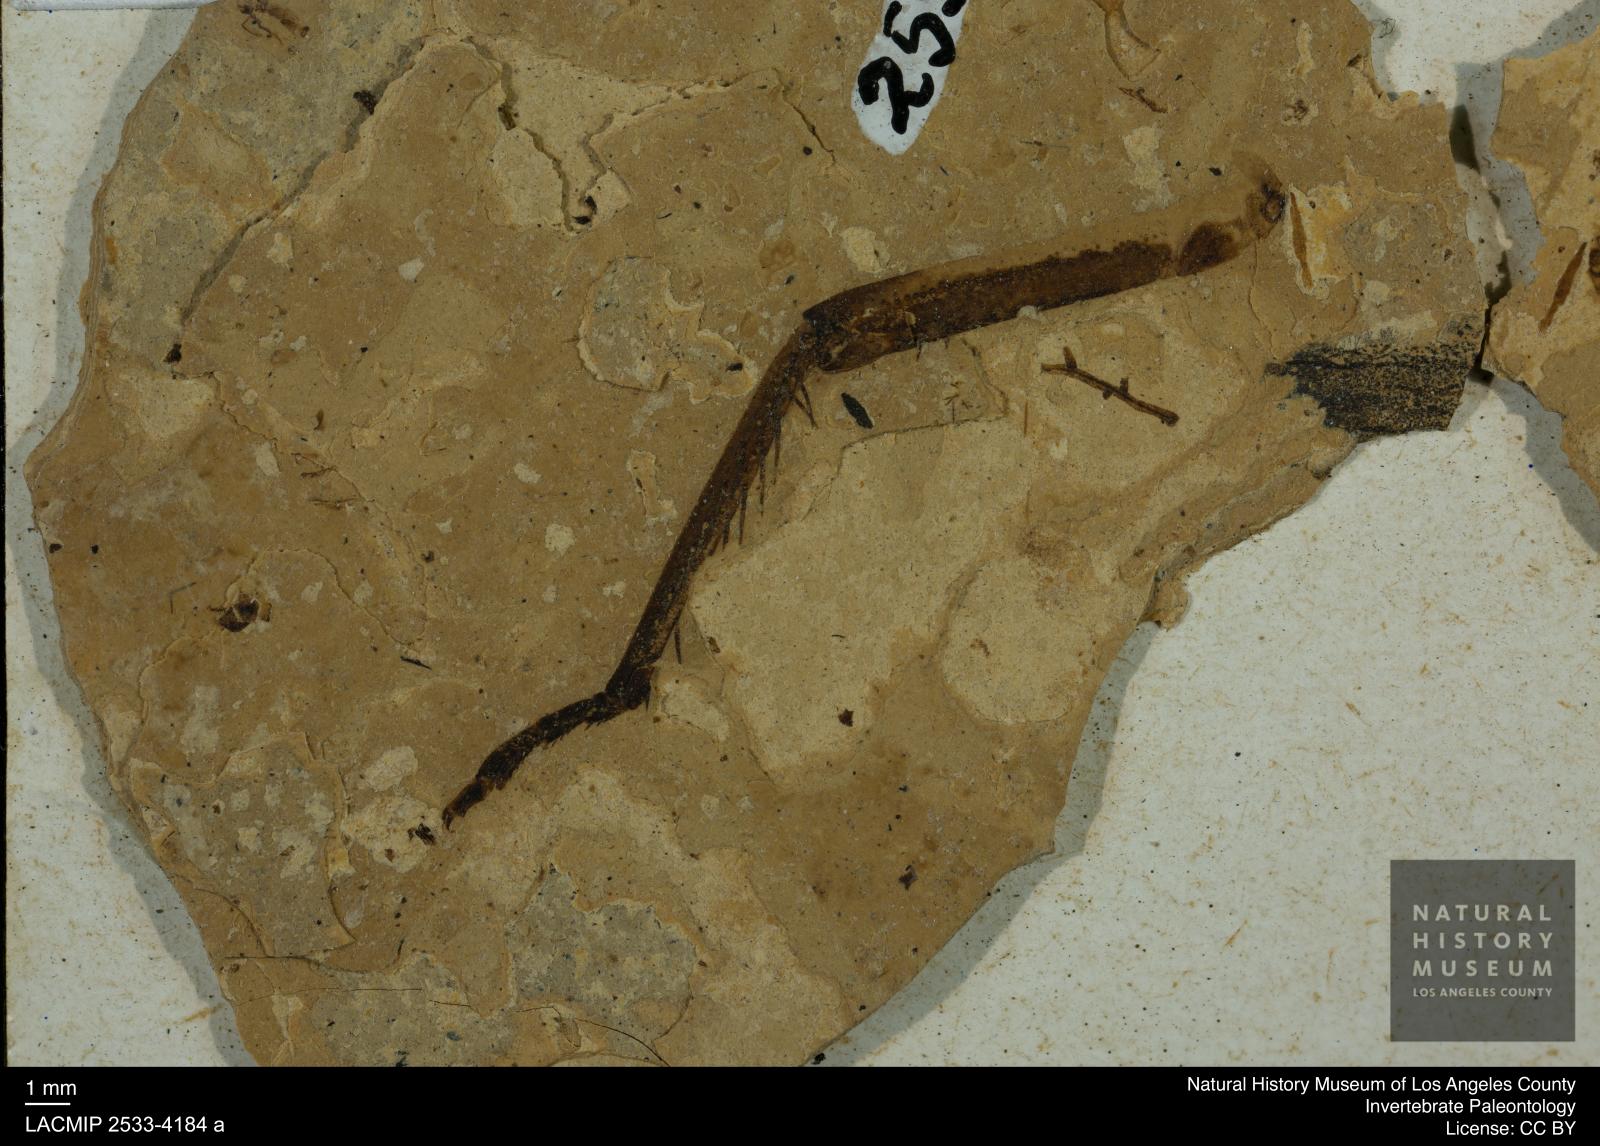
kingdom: Animalia
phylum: Arthropoda
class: Insecta
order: Odonata
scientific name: Odonata
